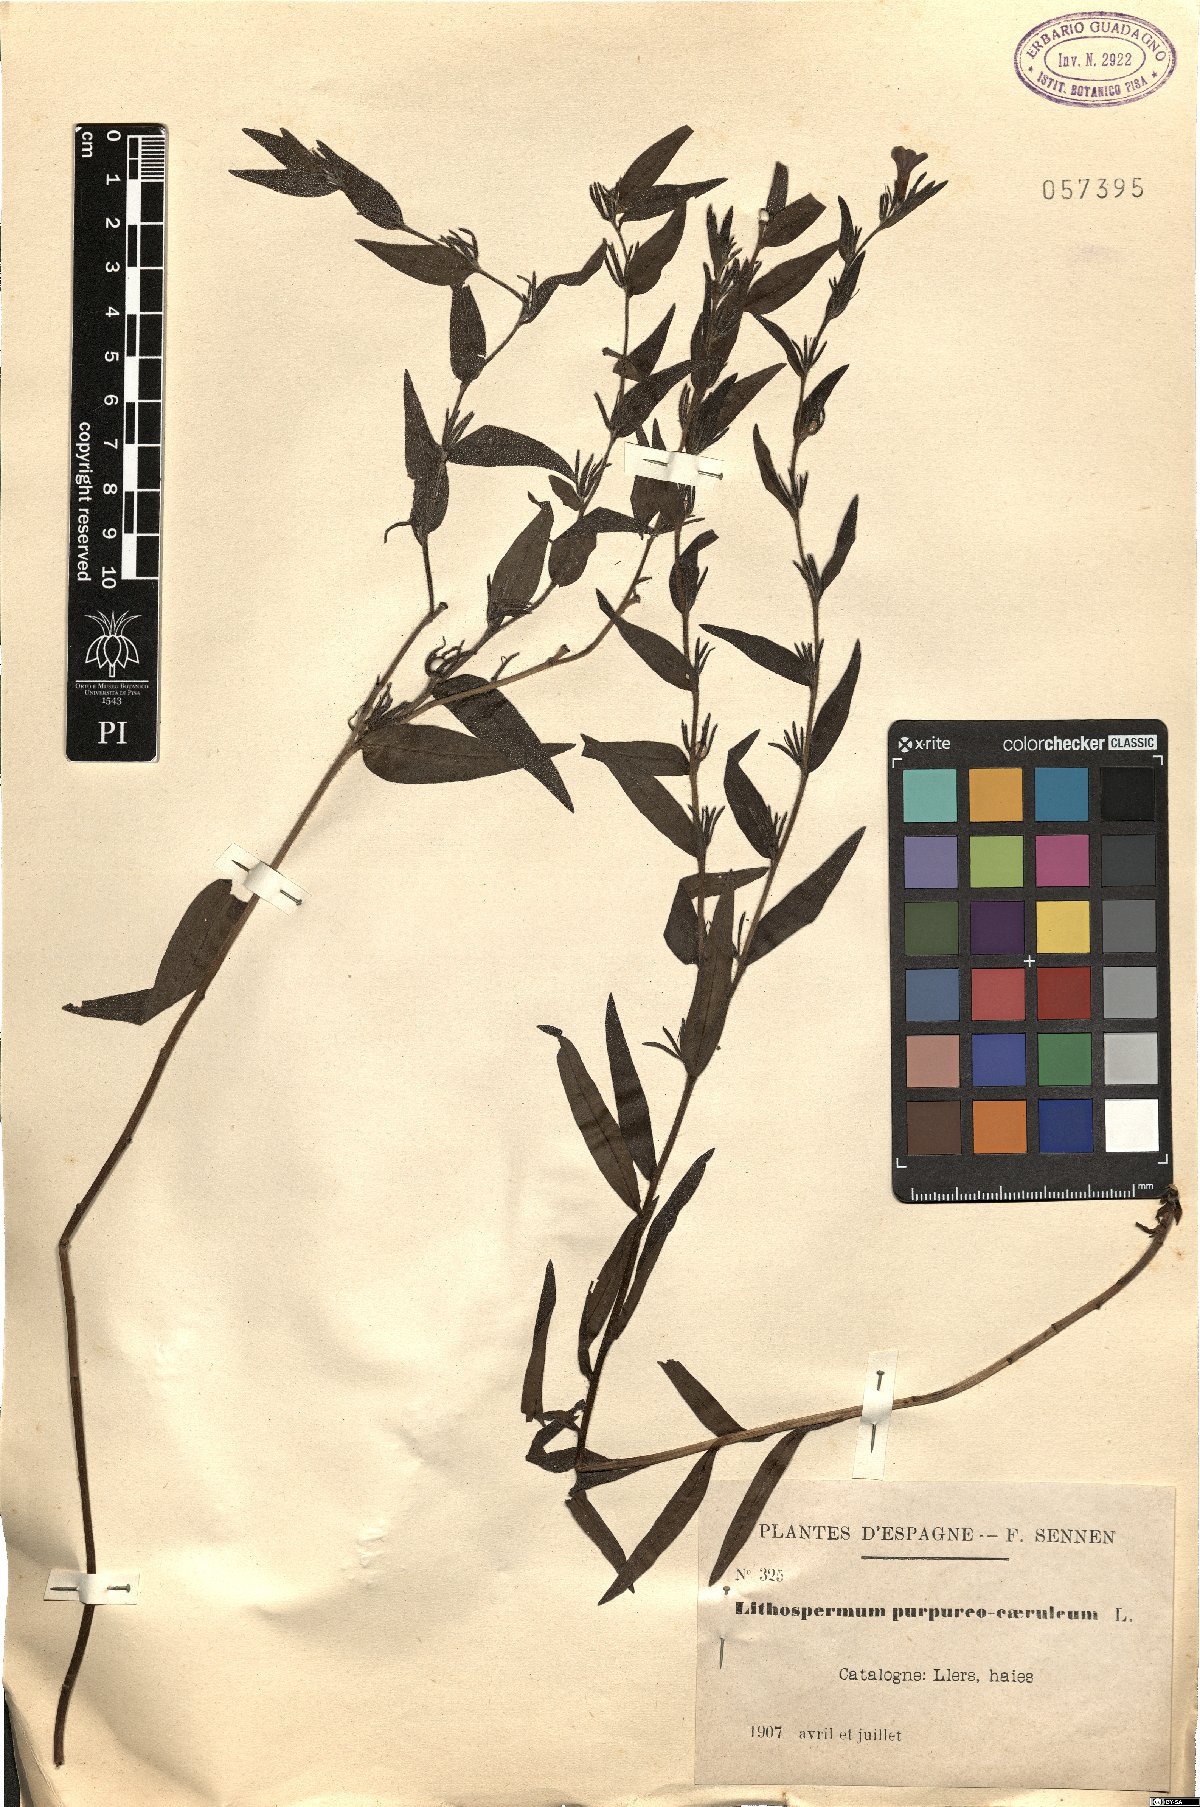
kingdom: Plantae
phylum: Tracheophyta
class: Magnoliopsida
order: Boraginales
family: Boraginaceae
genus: Aegonychon
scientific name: Aegonychon purpurocaeruleum
